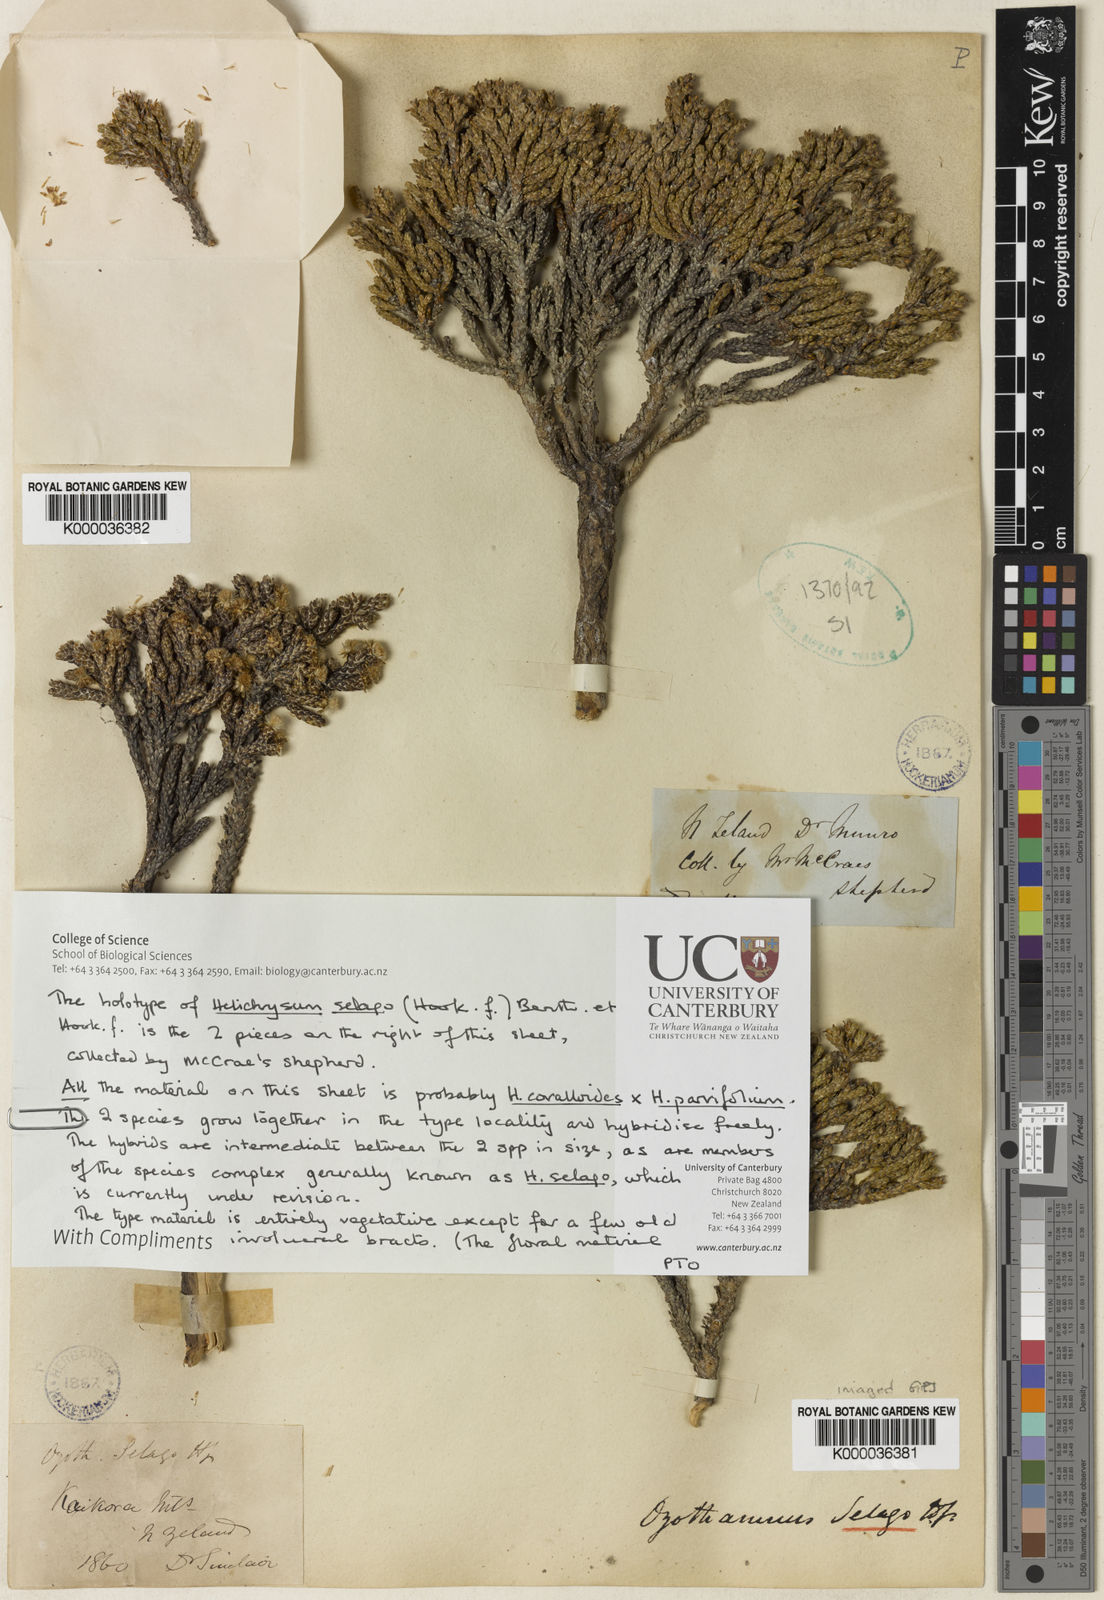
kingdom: Plantae
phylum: Tracheophyta
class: Magnoliopsida
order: Asterales
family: Asteraceae
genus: Ozothamnus
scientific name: Ozothamnus selago
